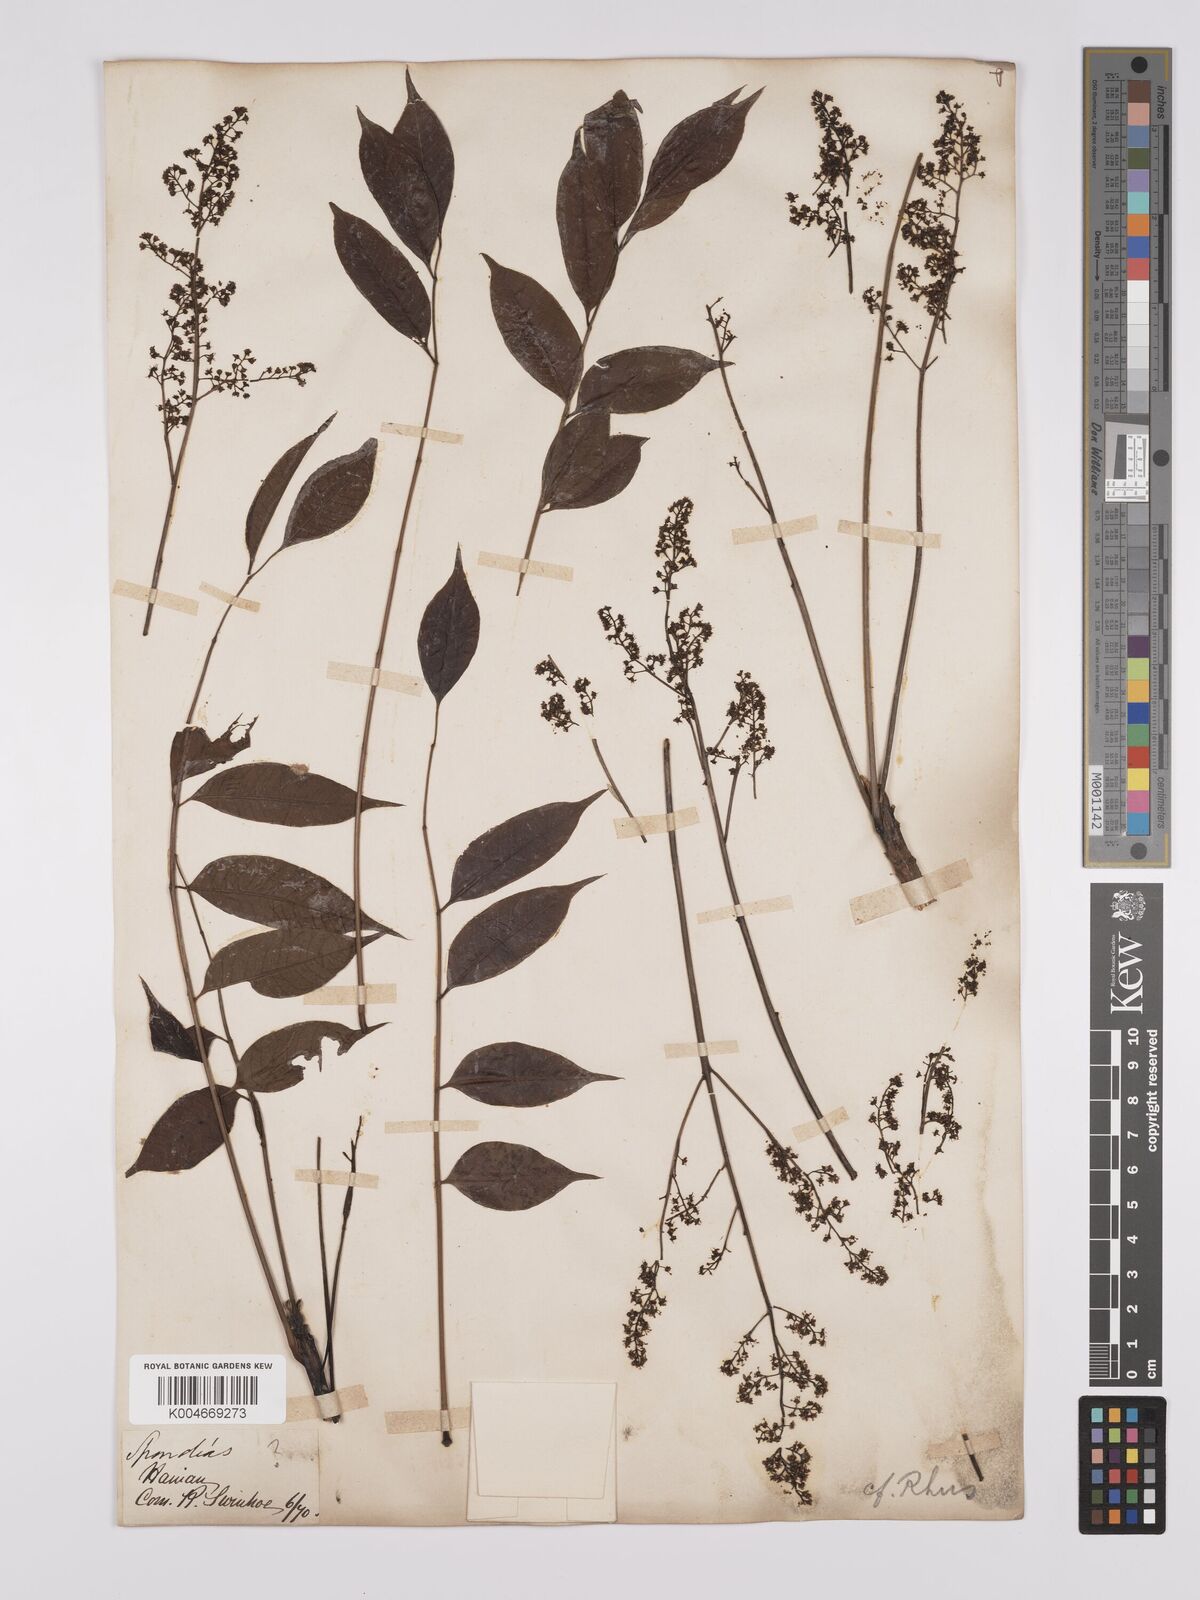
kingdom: Plantae
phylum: Tracheophyta
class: Magnoliopsida
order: Sapindales
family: Anacardiaceae
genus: Toxicodendron
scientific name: Toxicodendron succedaneum
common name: Wax tree
